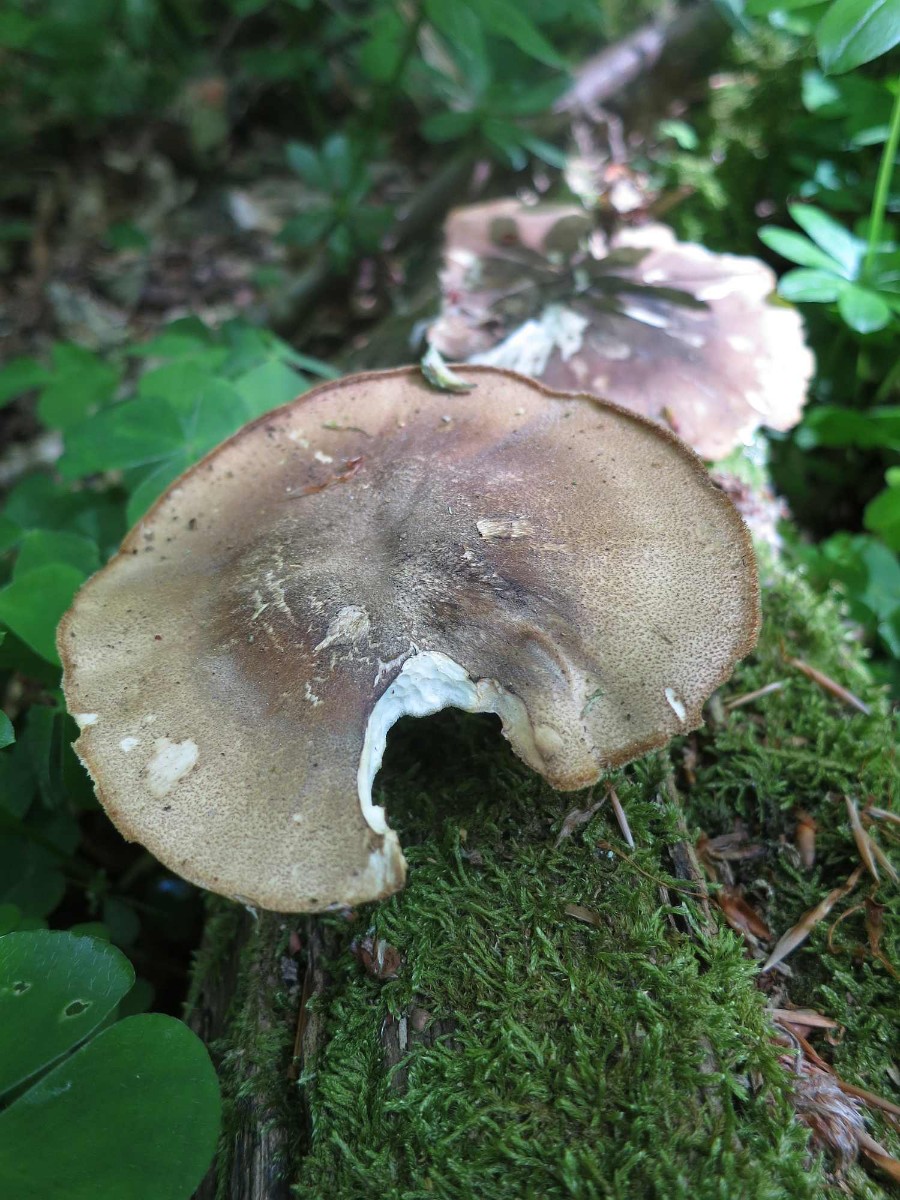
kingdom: Fungi
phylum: Basidiomycota
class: Agaricomycetes
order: Polyporales
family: Polyporaceae
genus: Lentinus
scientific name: Lentinus substrictus
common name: forårs-stilkporesvamp
